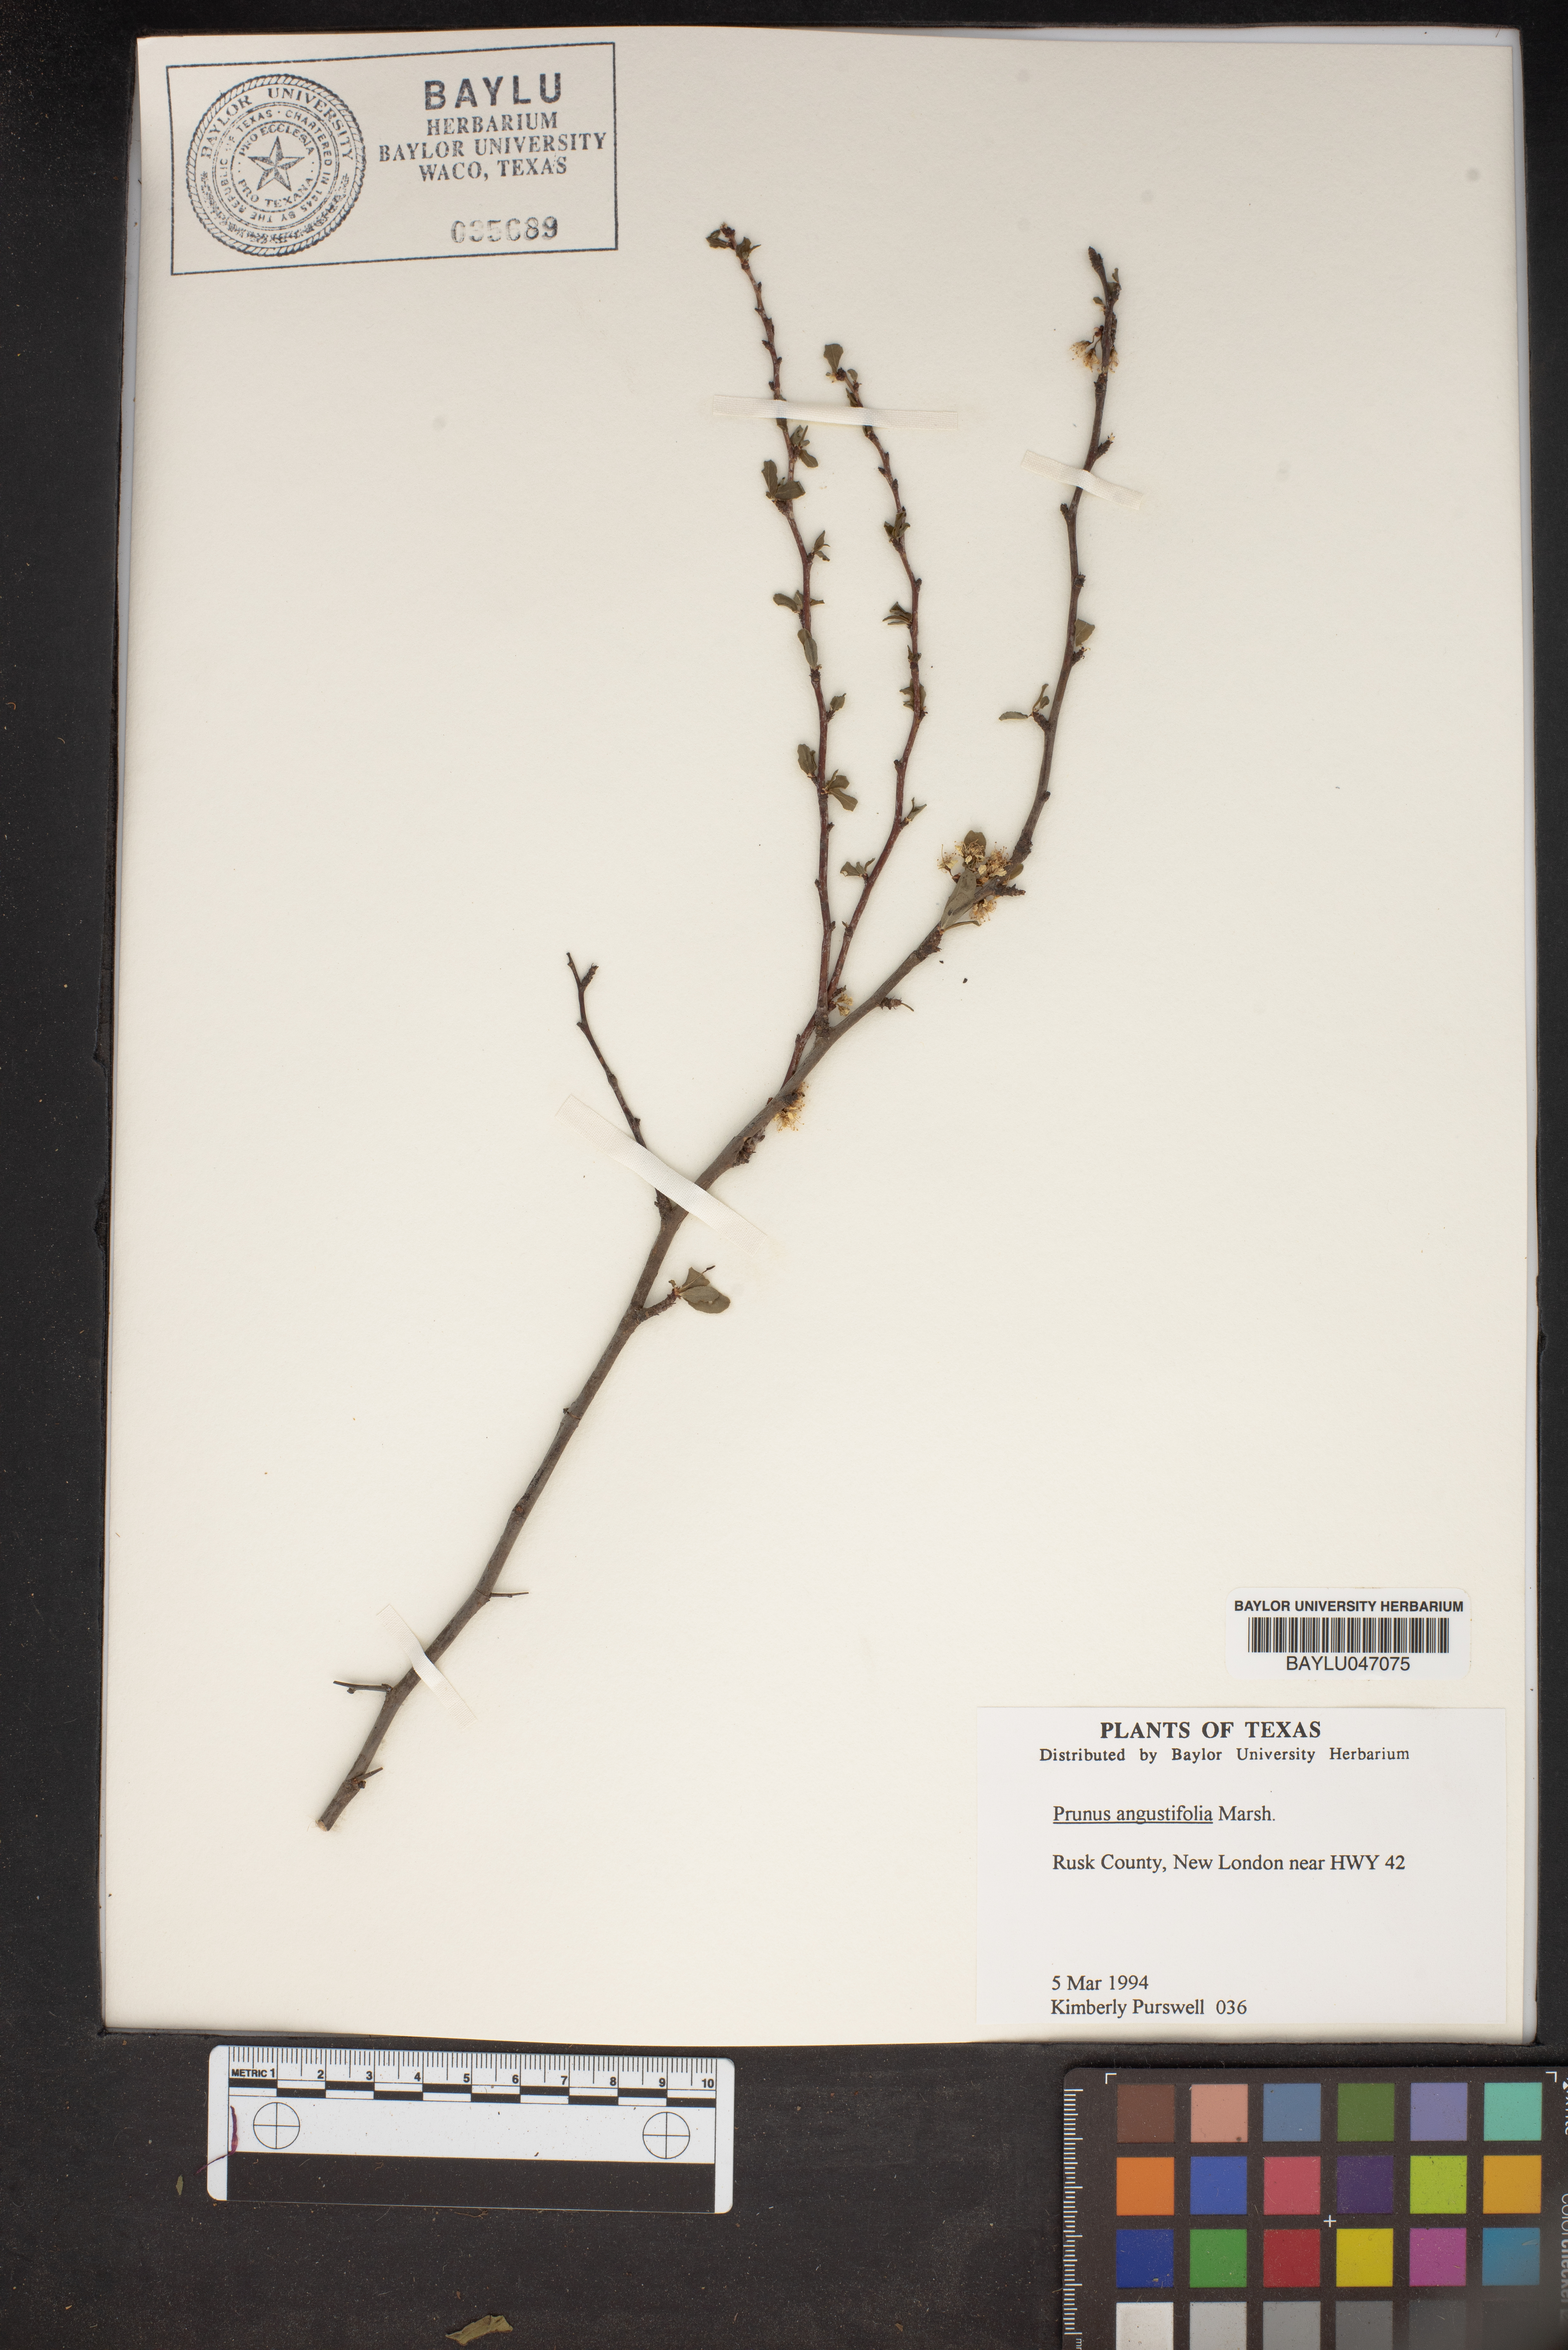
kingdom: Plantae
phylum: Tracheophyta
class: Magnoliopsida
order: Rosales
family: Rosaceae
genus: Prunus
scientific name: Prunus angustifolia
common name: Cherokee plum
